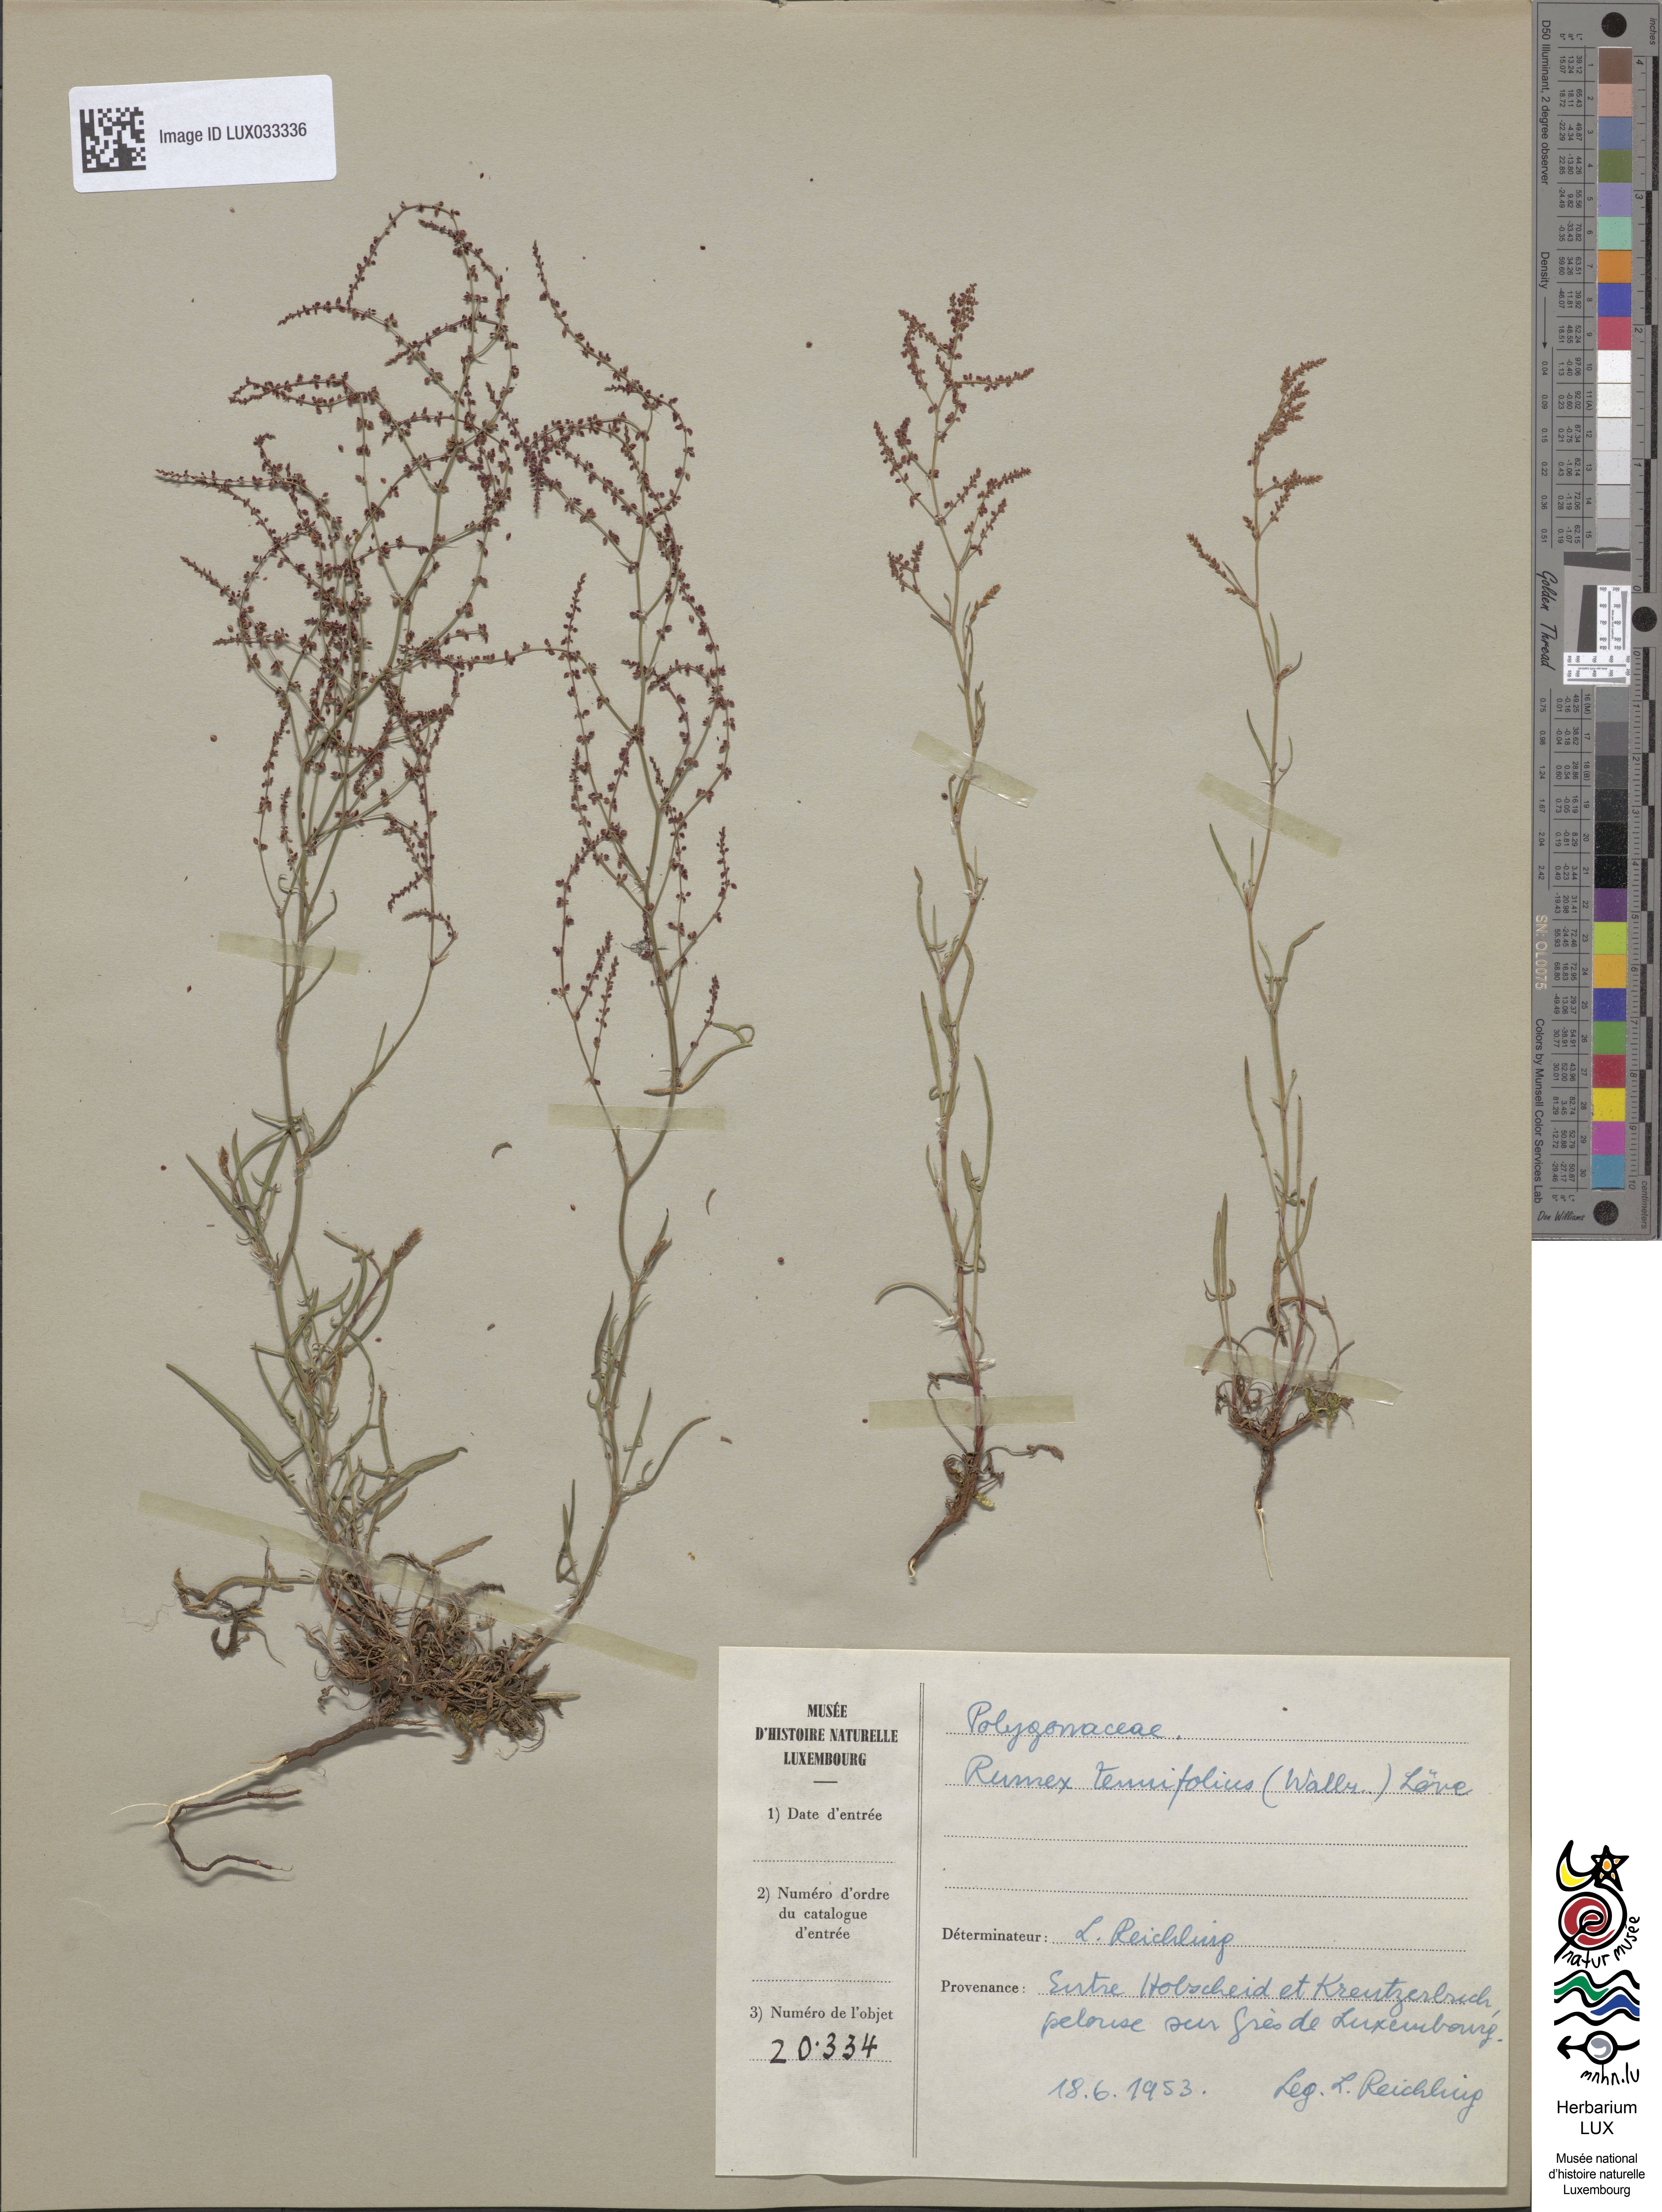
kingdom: Plantae
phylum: Tracheophyta
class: Magnoliopsida
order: Caryophyllales
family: Polygonaceae
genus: Rumex
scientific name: Rumex acetosella
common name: Common sheep sorrel
